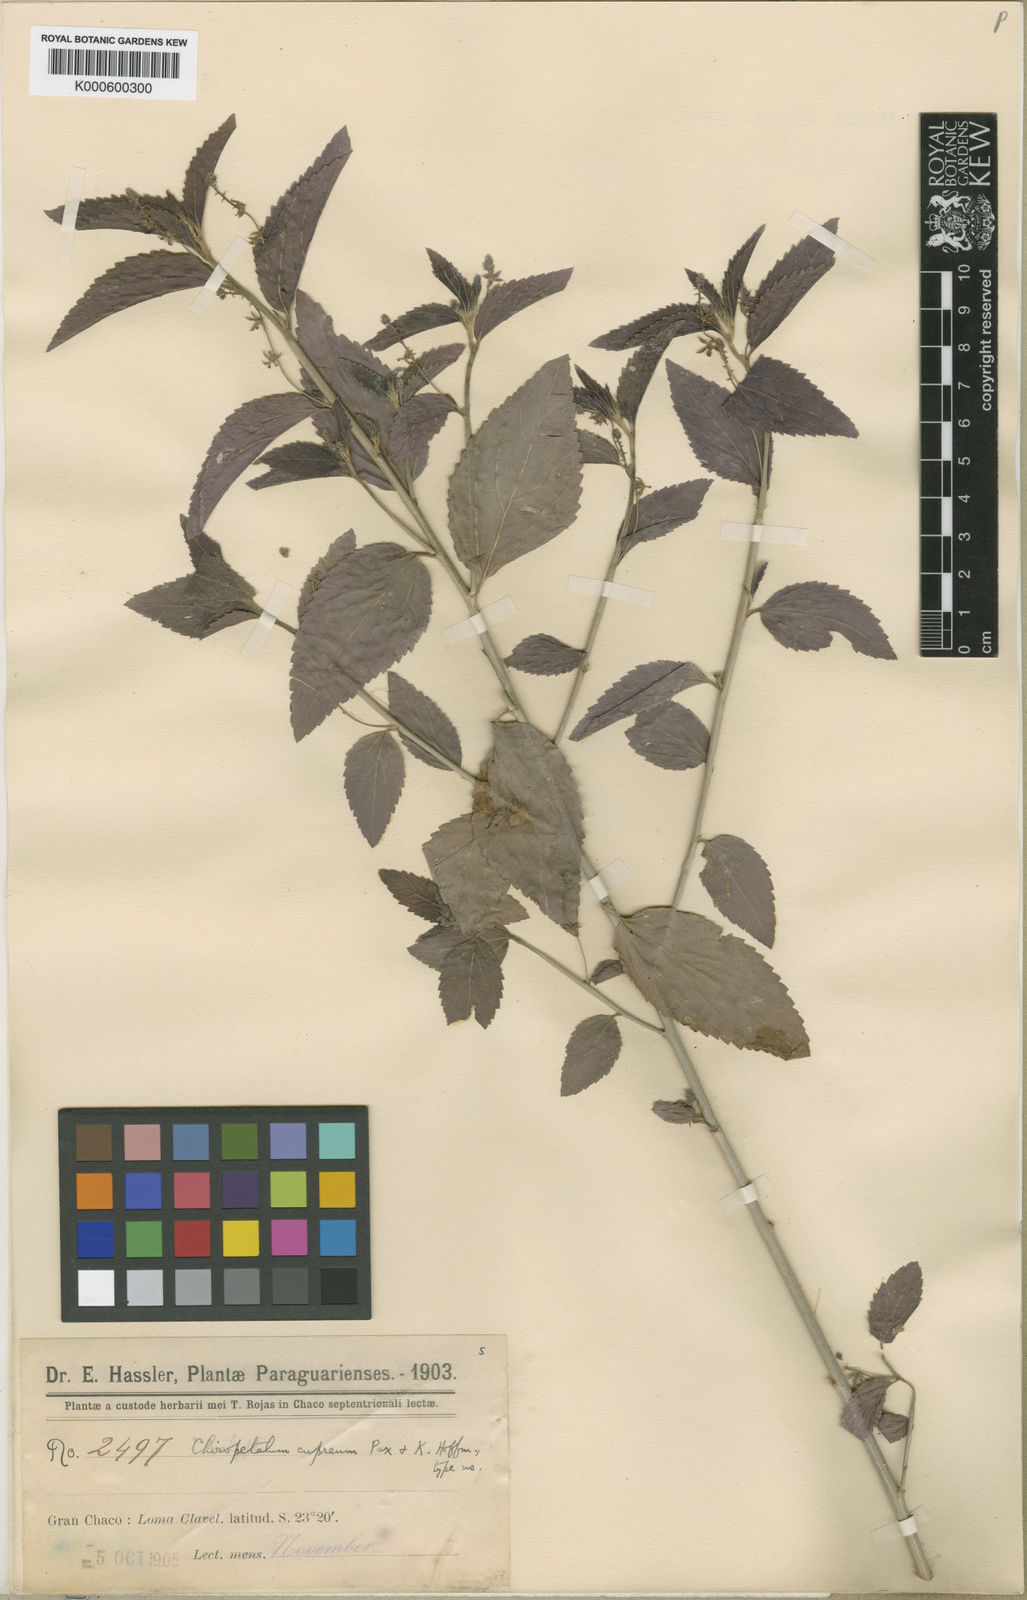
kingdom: Plantae
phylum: Tracheophyta
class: Magnoliopsida
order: Malpighiales
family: Euphorbiaceae
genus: Chiropetalum
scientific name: Chiropetalum griseum
